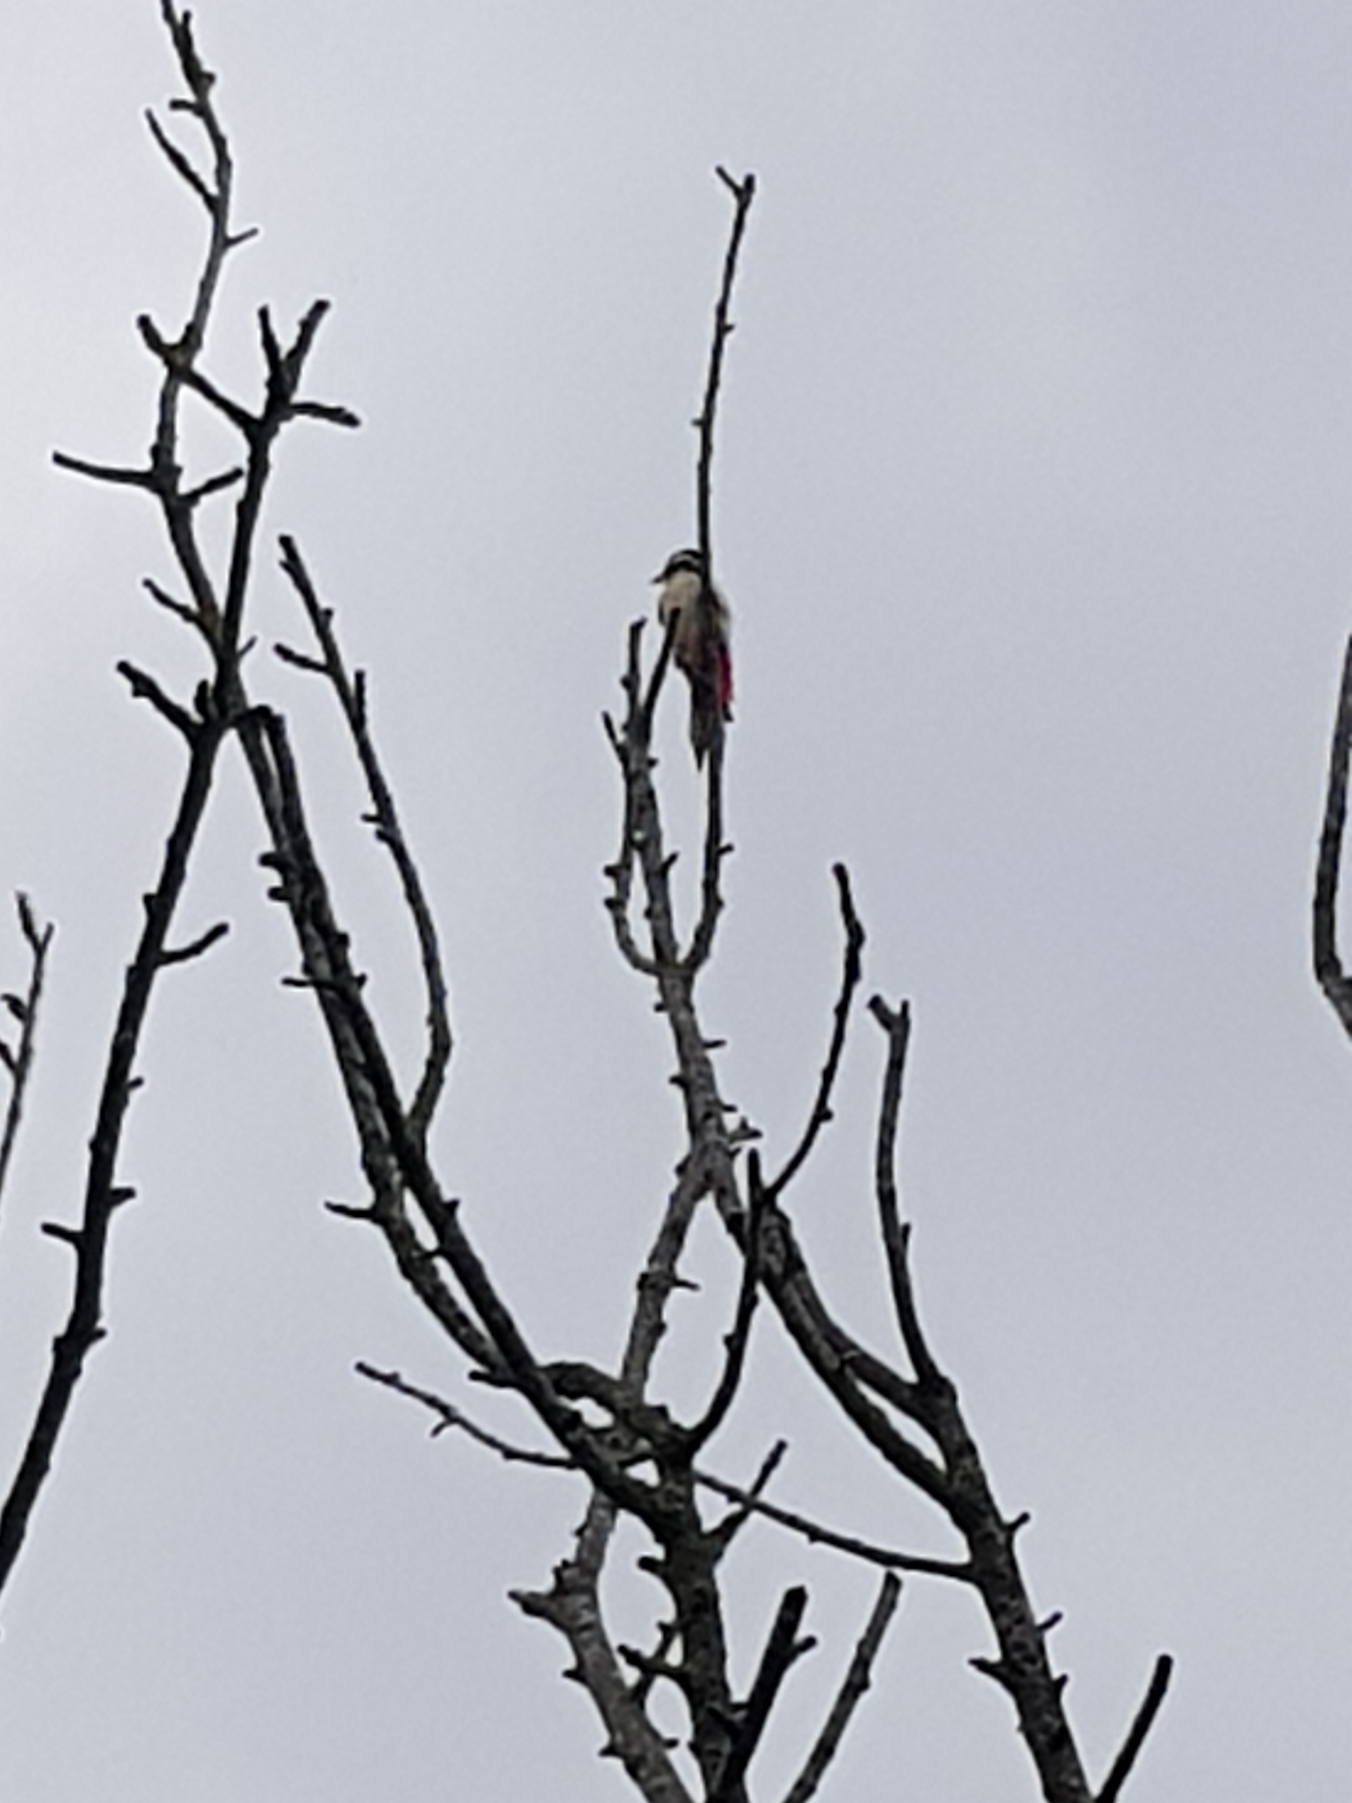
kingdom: Animalia
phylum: Chordata
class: Aves
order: Piciformes
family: Picidae
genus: Dendrocopos
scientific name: Dendrocopos major
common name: Stor flagspætte
